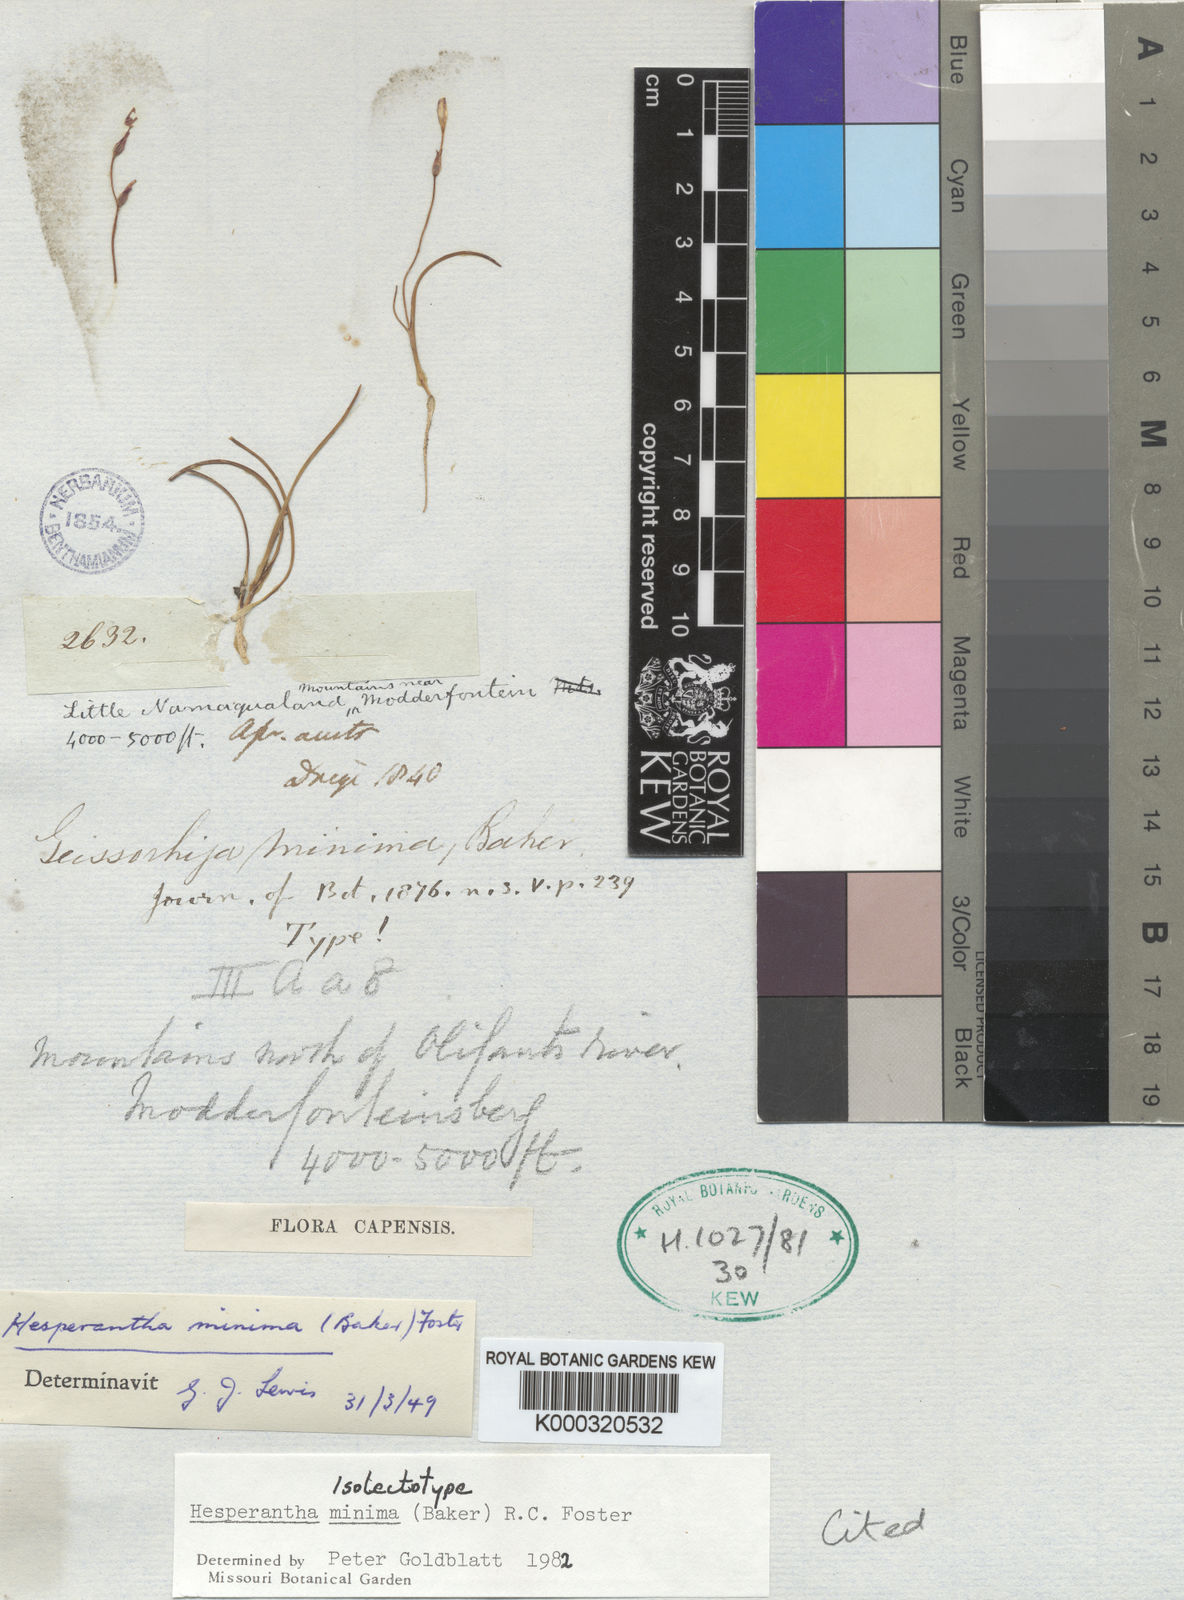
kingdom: Plantae
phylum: Tracheophyta
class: Liliopsida
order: Asparagales
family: Iridaceae
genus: Hesperantha
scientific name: Hesperantha minima
